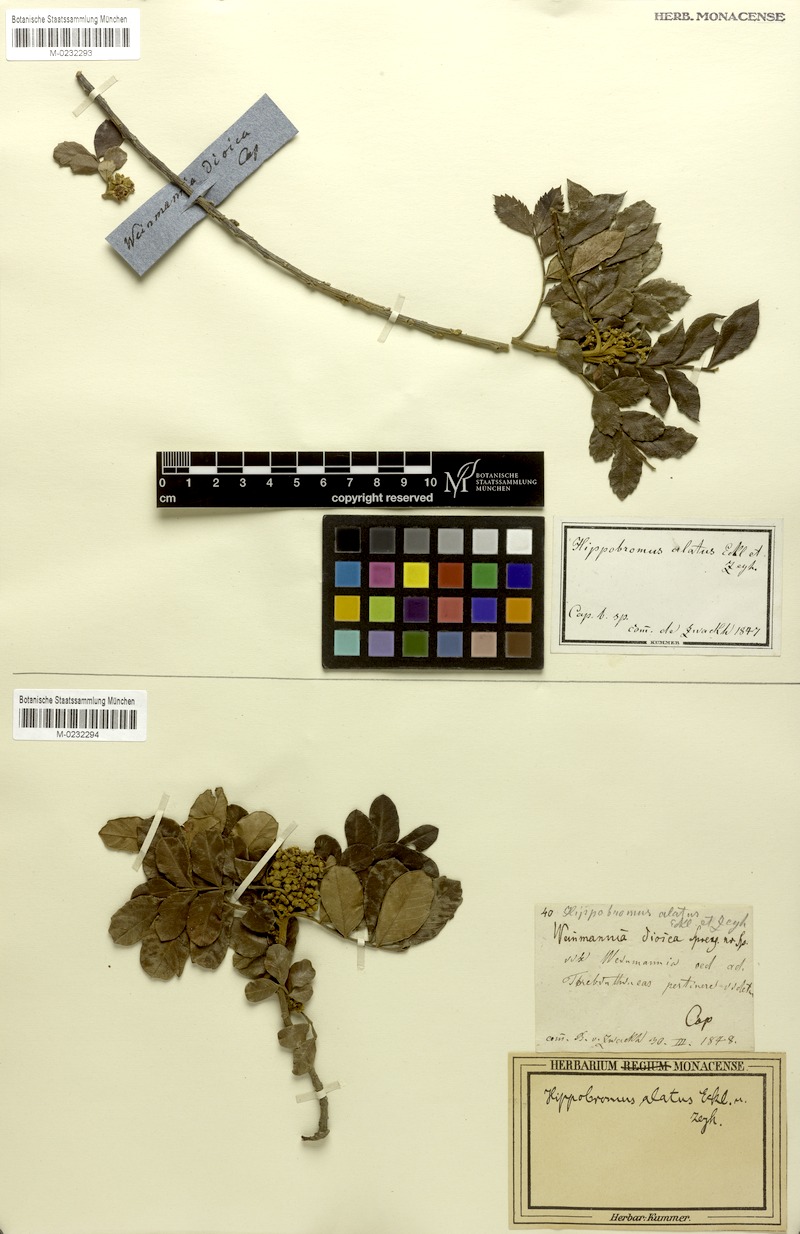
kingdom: Plantae
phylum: Tracheophyta
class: Magnoliopsida
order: Sapindales
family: Sapindaceae
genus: Hippobromus
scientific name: Hippobromus pauciflorus
